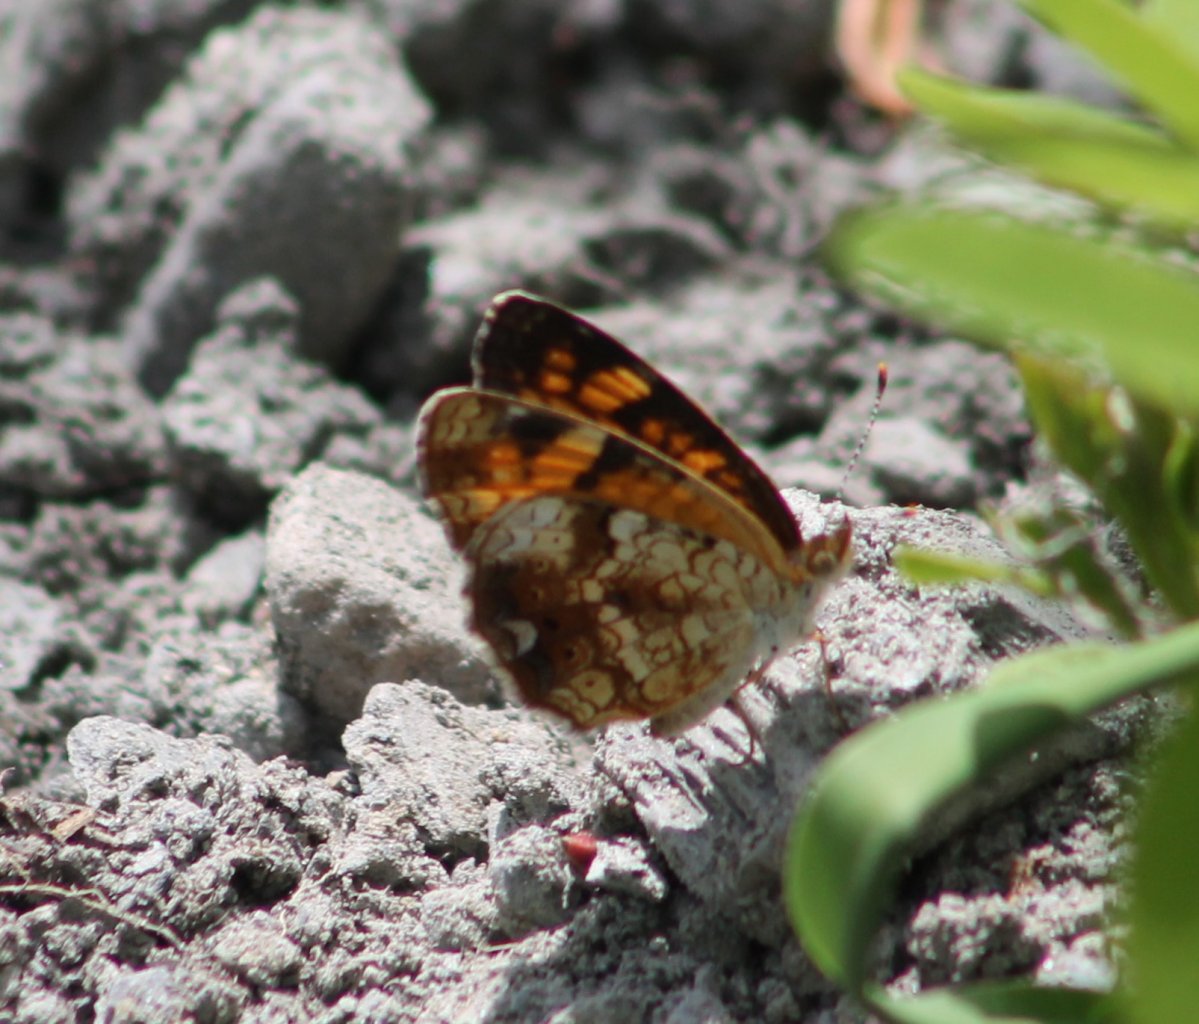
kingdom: Animalia
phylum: Arthropoda
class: Insecta
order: Lepidoptera
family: Nymphalidae
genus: Phyciodes
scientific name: Phyciodes tharos
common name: Pearl Crescent
